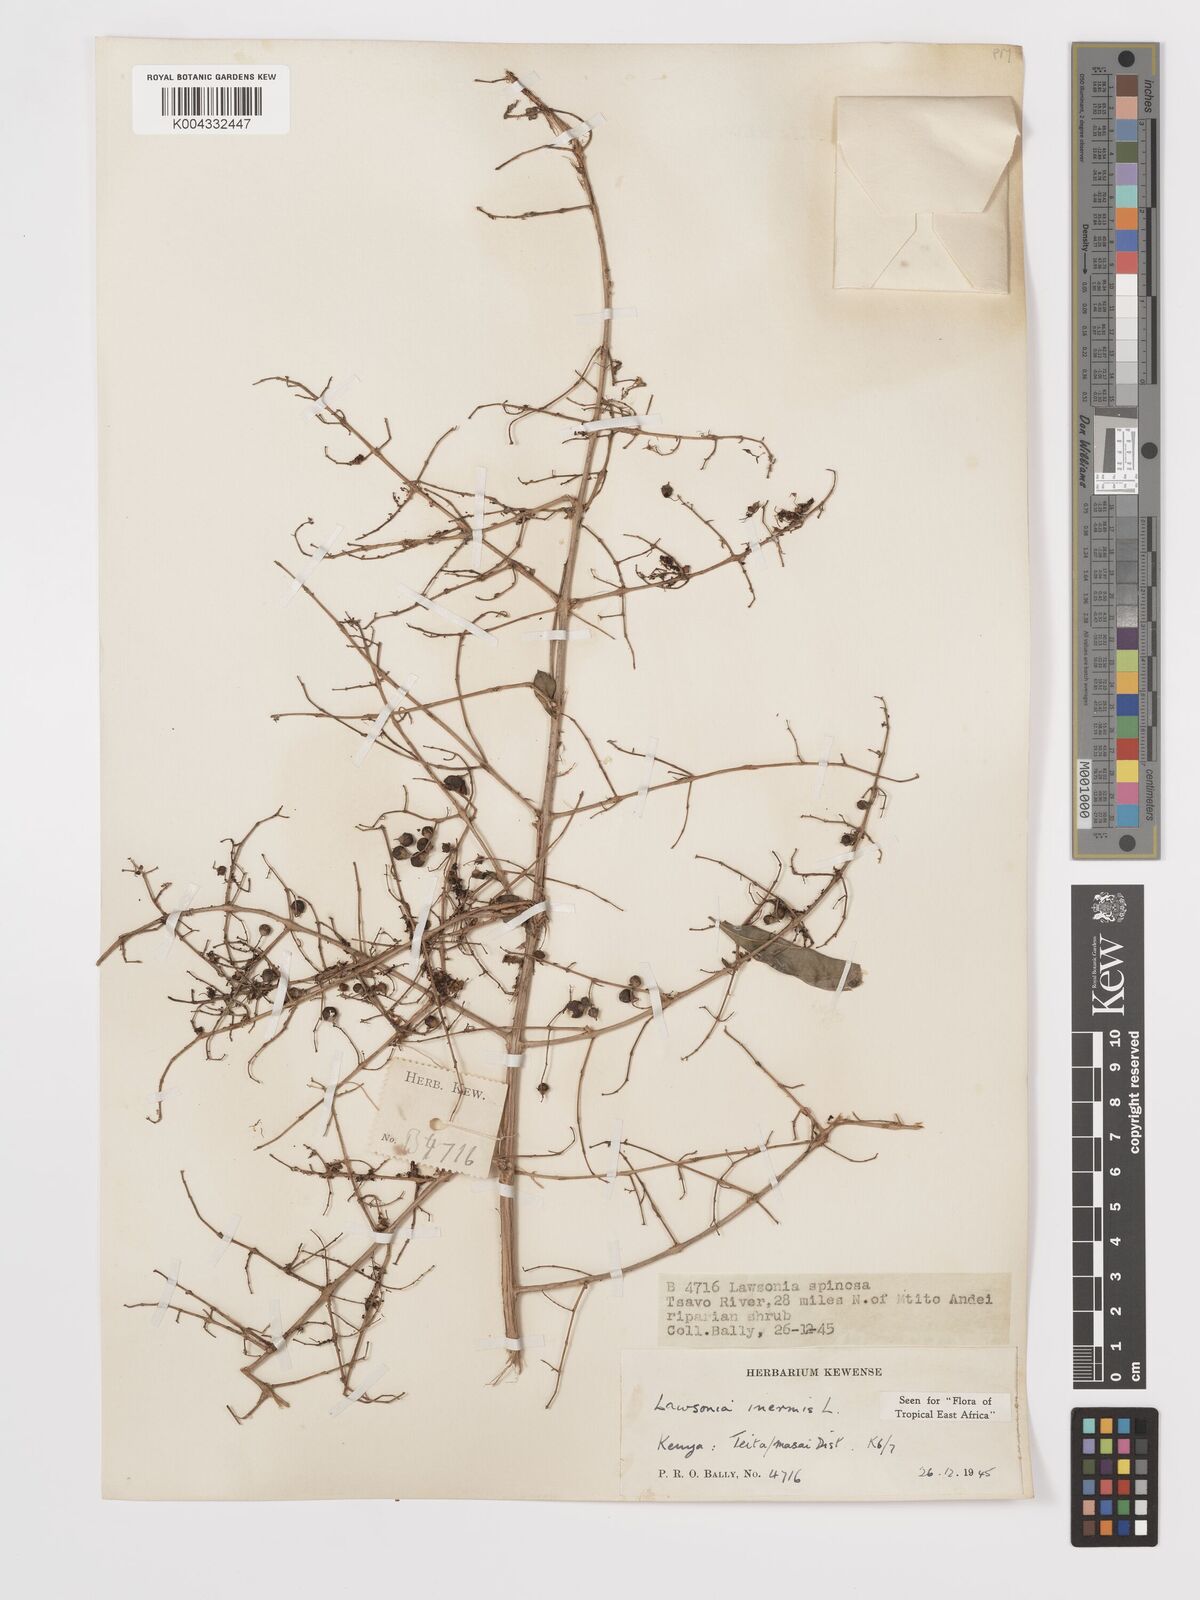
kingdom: Plantae
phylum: Tracheophyta
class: Magnoliopsida
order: Myrtales
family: Lythraceae
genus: Lawsonia
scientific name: Lawsonia inermis
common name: Henna
